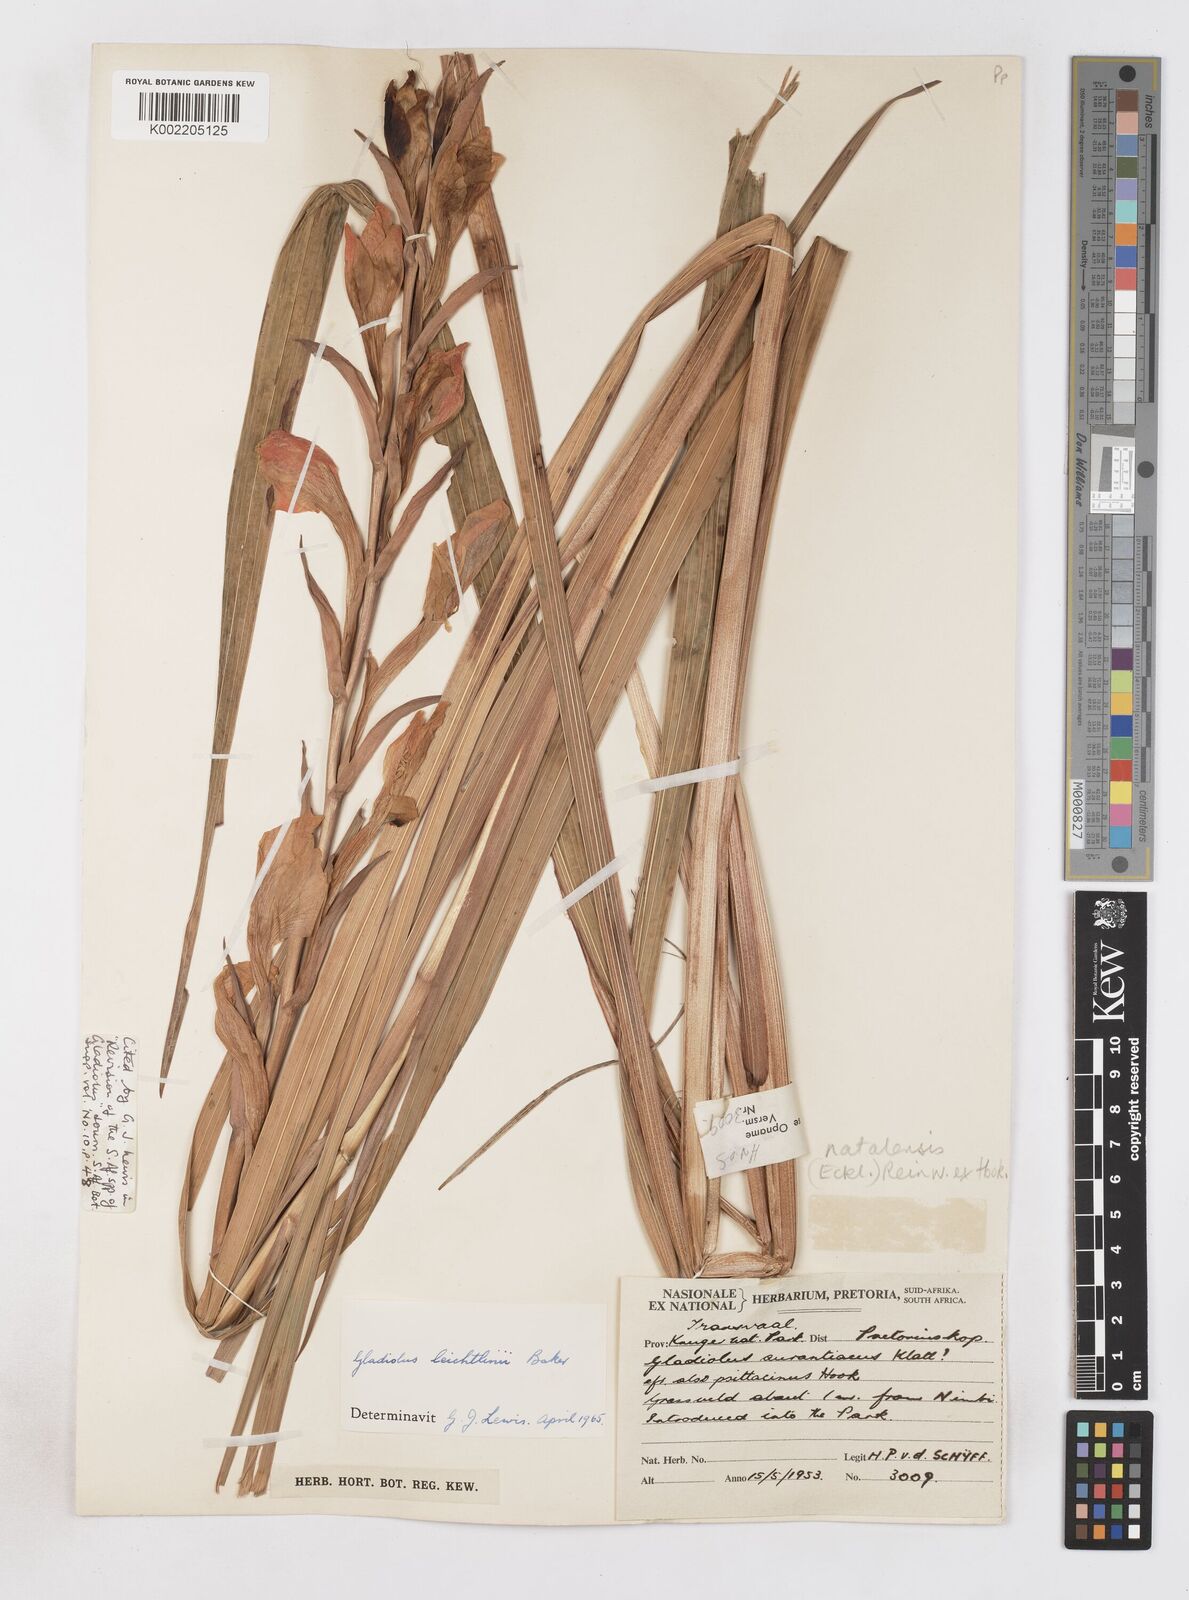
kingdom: Plantae
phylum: Tracheophyta
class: Liliopsida
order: Asparagales
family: Iridaceae
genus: Gladiolus
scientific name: Gladiolus dalenii
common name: Cornflag
